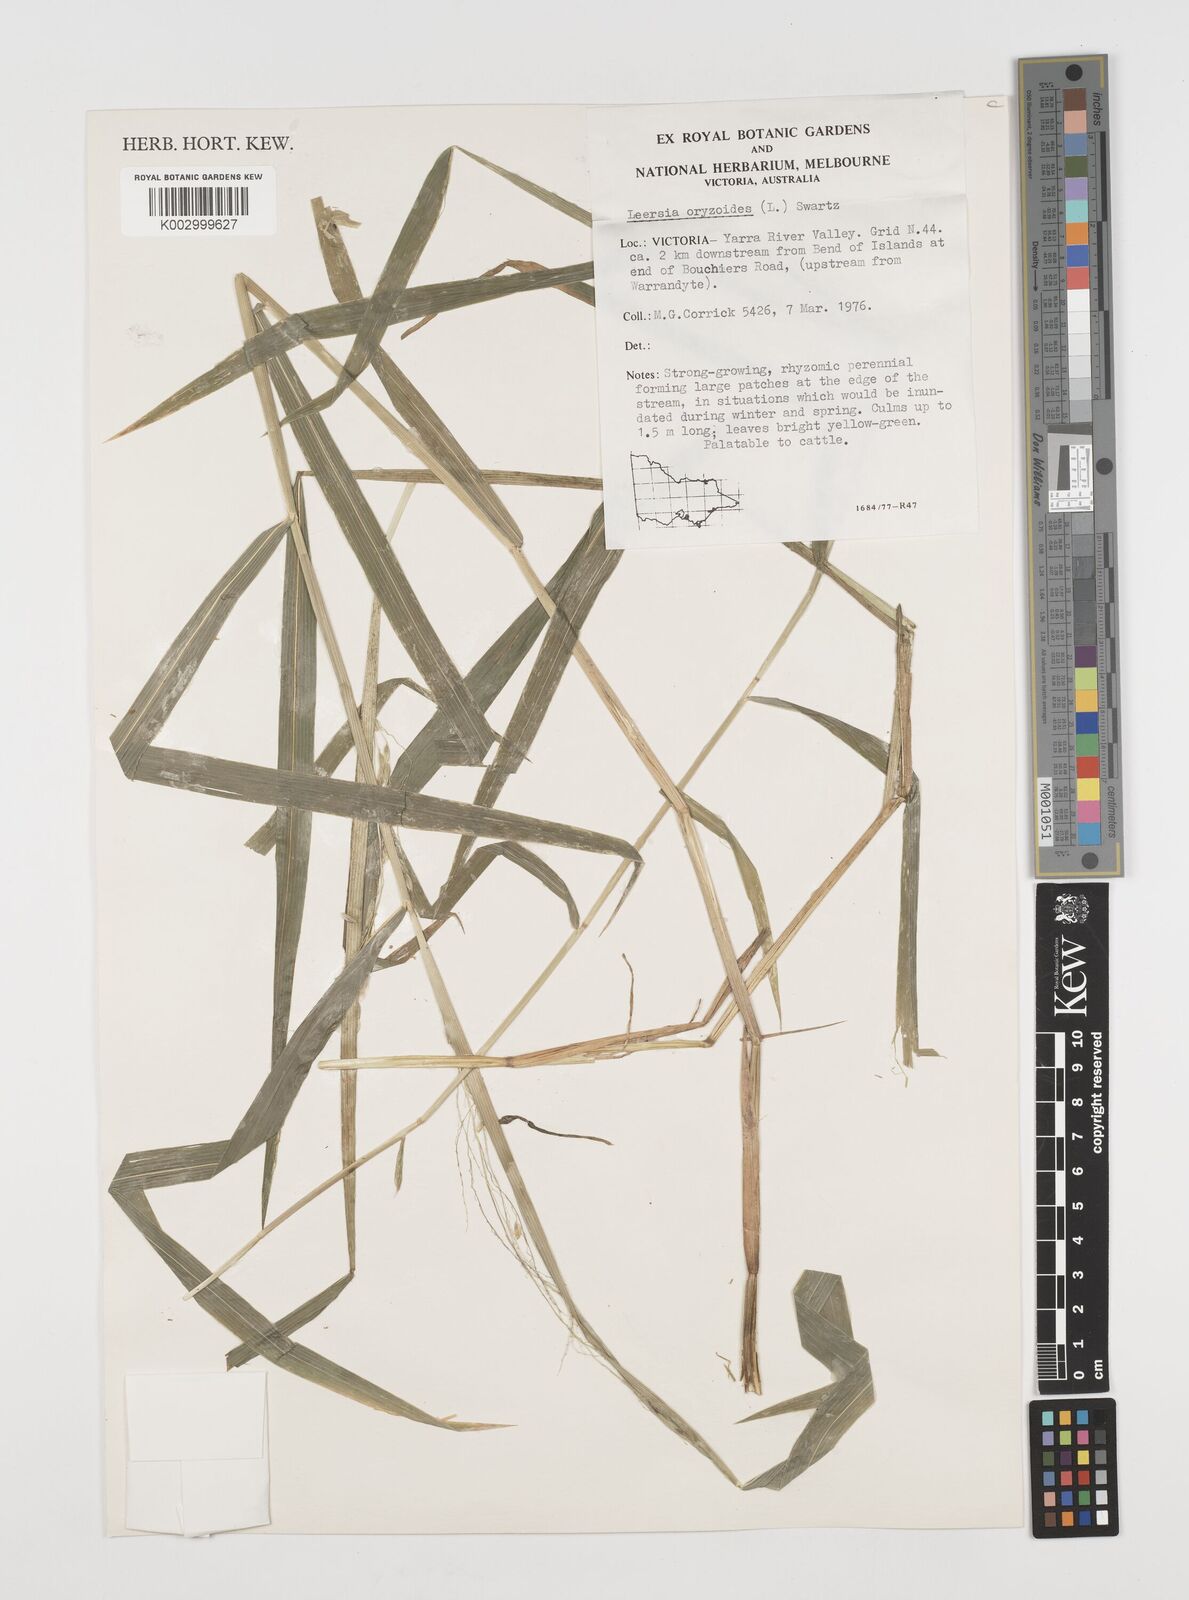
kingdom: Plantae
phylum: Tracheophyta
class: Liliopsida
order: Poales
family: Poaceae
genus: Leersia
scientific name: Leersia oryzoides
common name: Cut-grass
